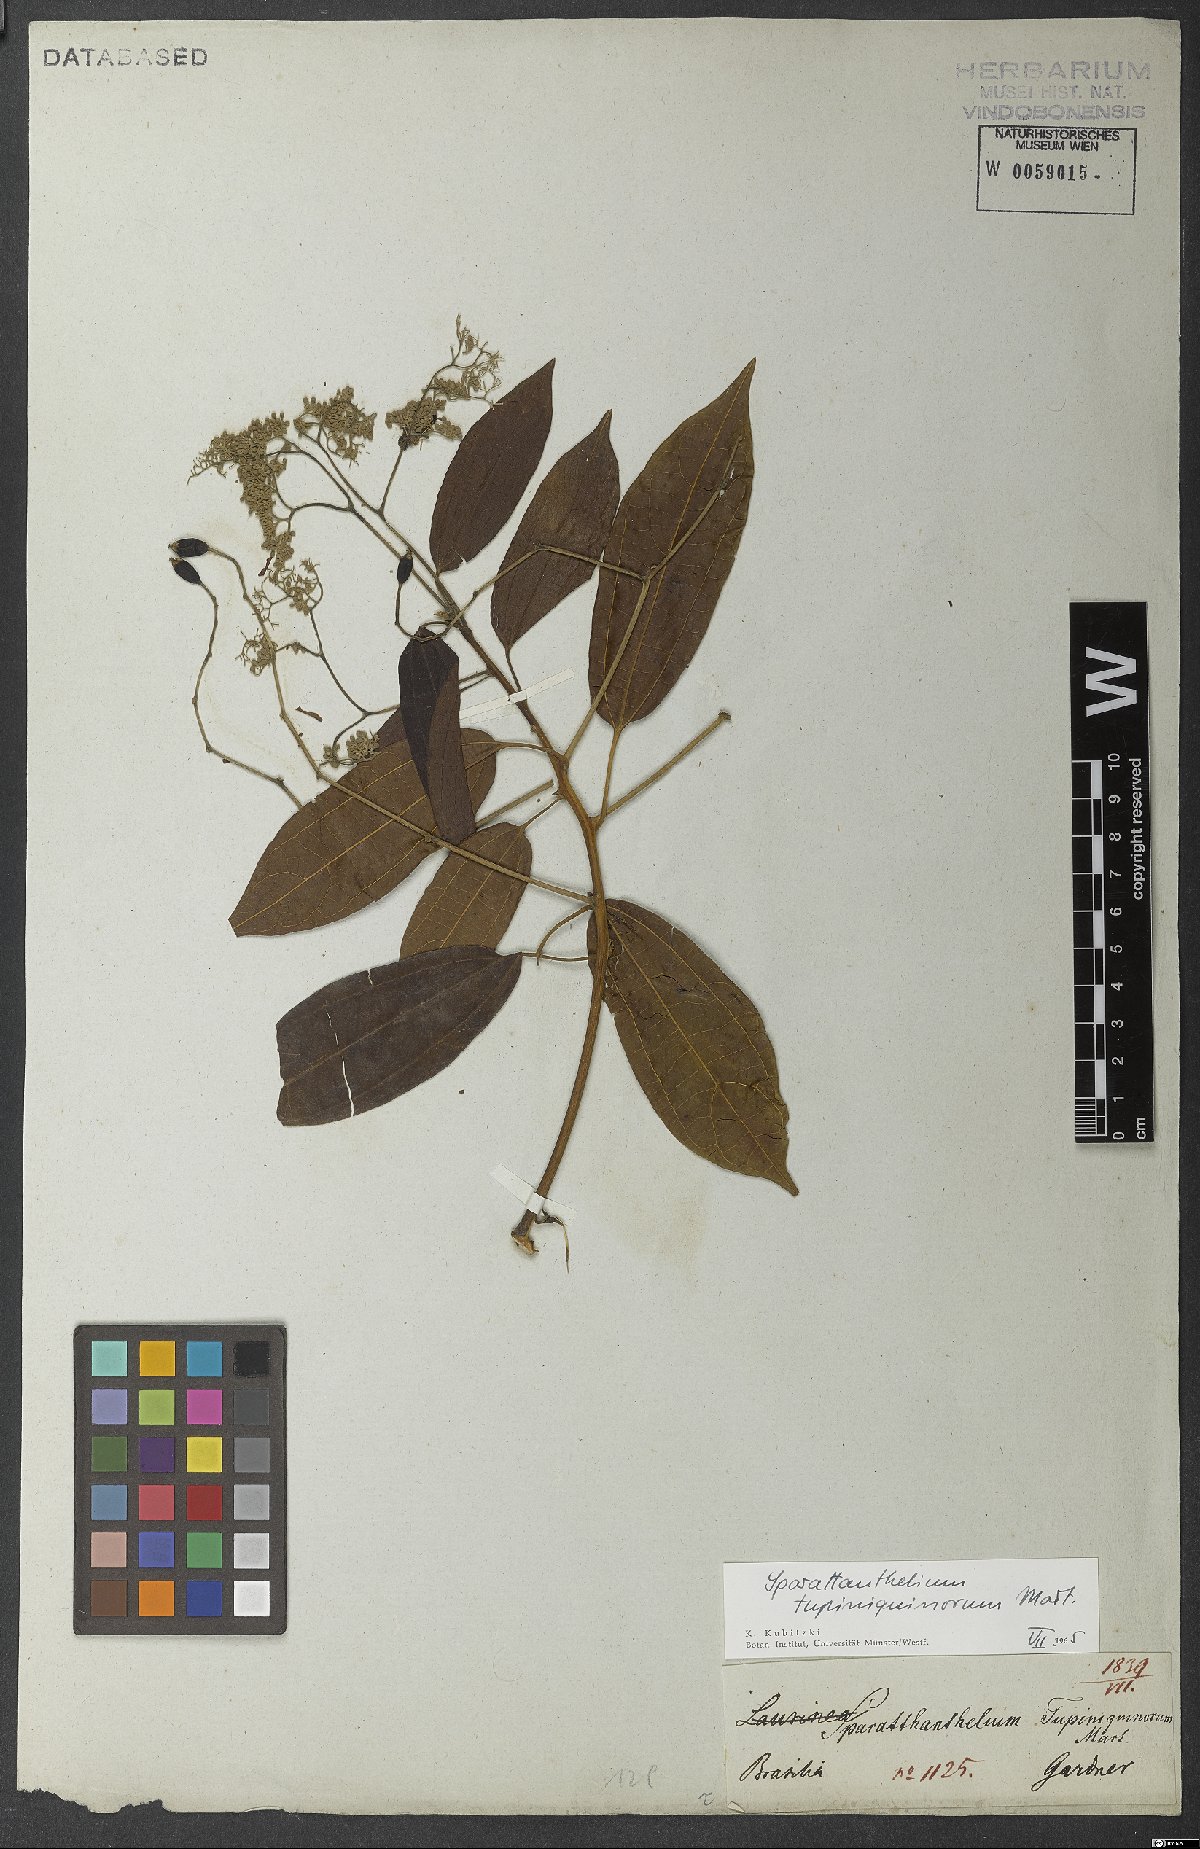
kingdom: Plantae
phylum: Tracheophyta
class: Magnoliopsida
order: Laurales
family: Hernandiaceae
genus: Sparattanthelium
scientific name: Sparattanthelium tupiniquinorum
